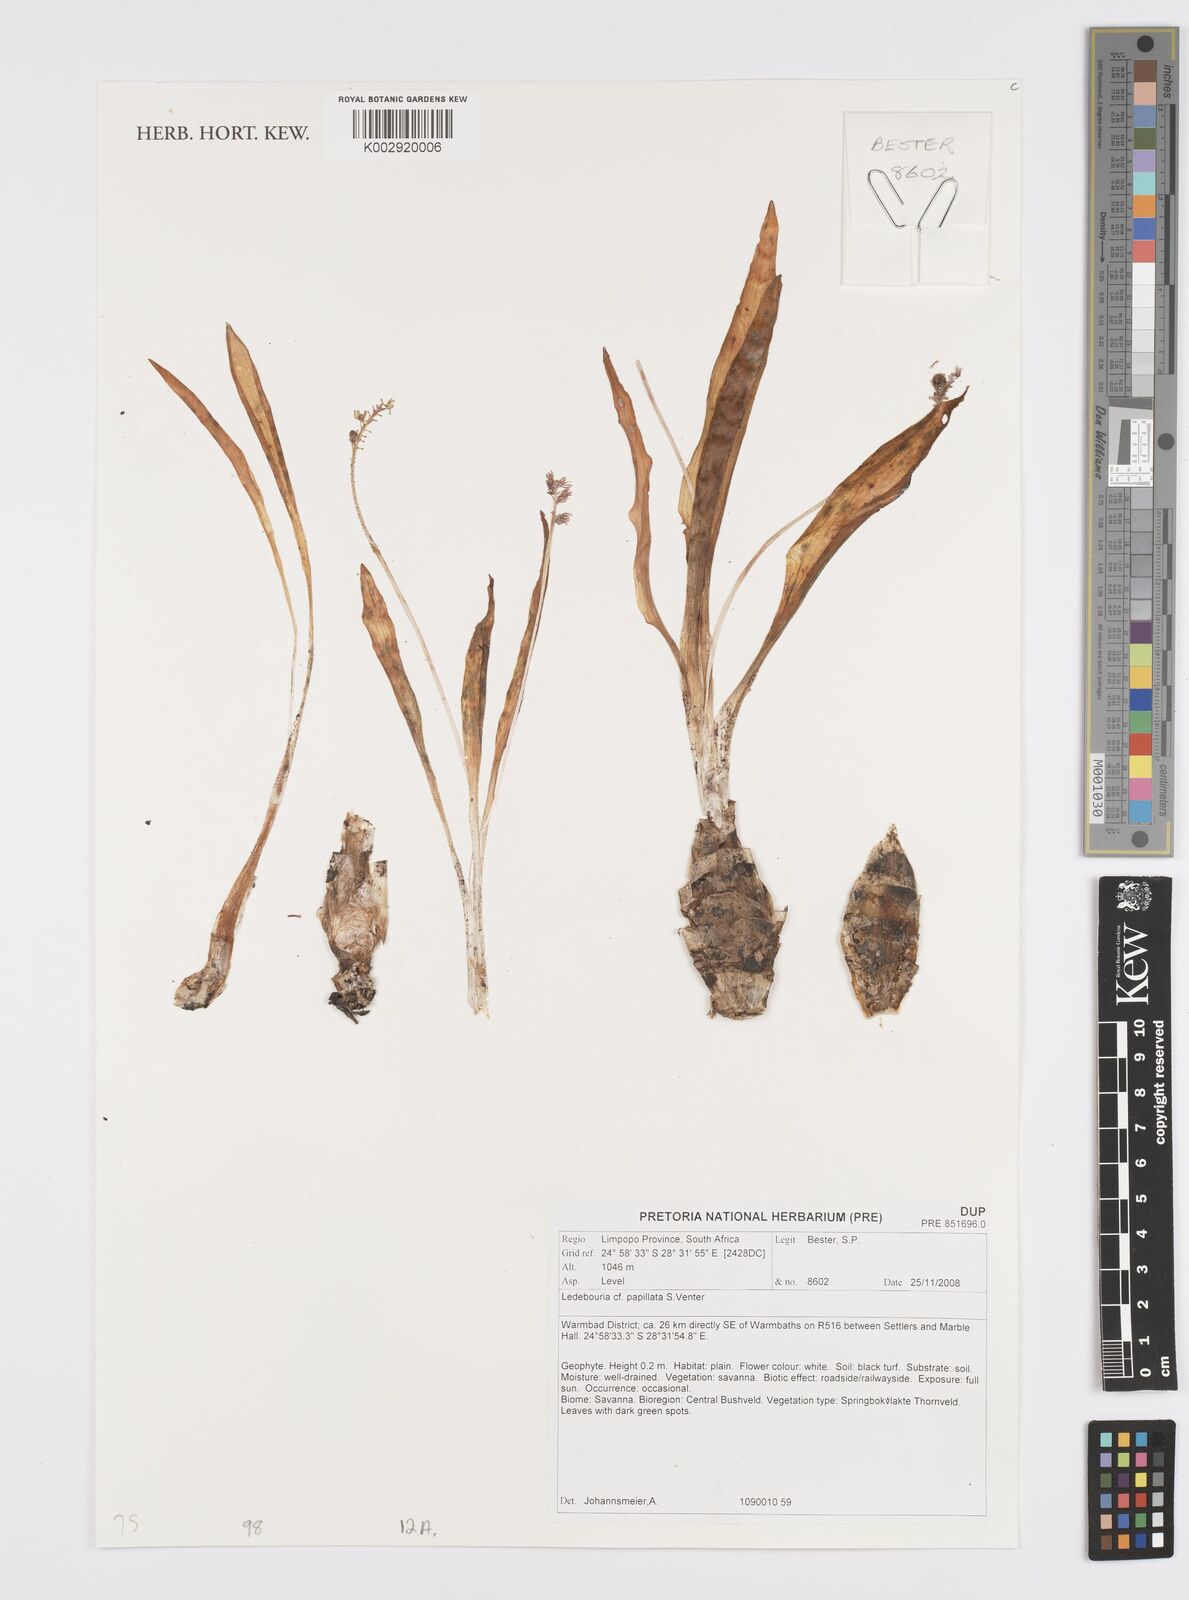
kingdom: Plantae
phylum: Tracheophyta
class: Liliopsida
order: Asparagales
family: Asparagaceae
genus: Ledebouria
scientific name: Ledebouria
